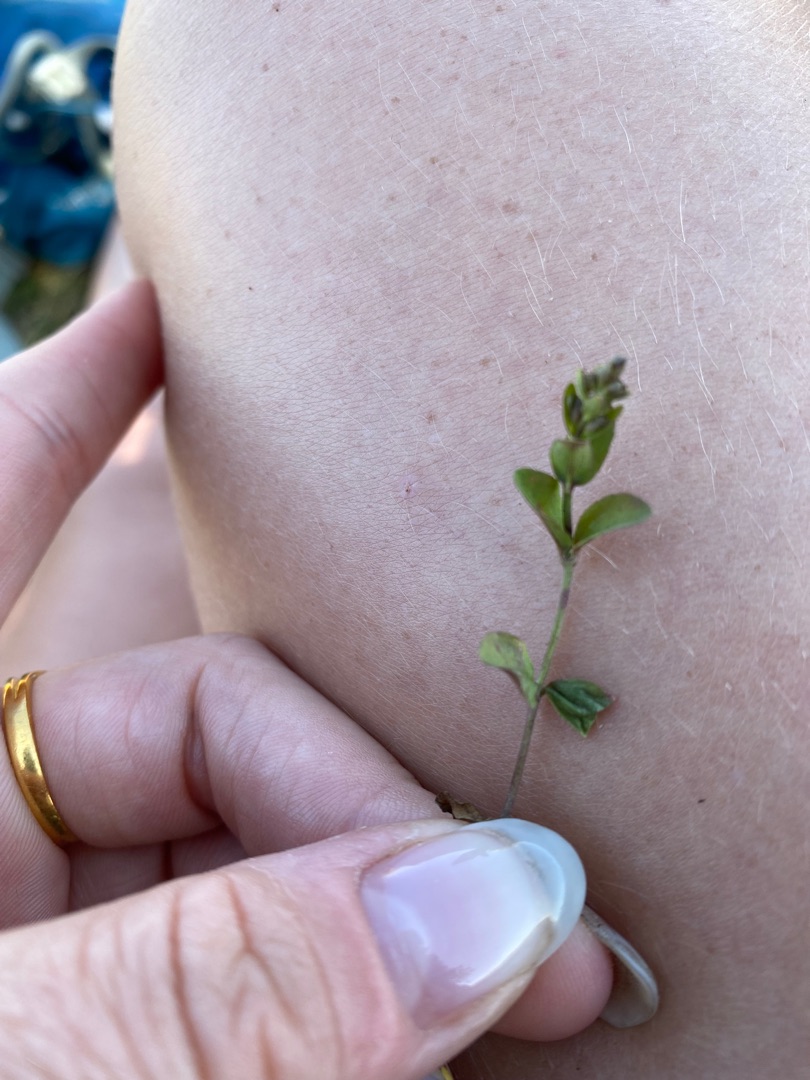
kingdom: Plantae
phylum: Tracheophyta
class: Magnoliopsida
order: Lamiales
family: Plantaginaceae
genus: Veronica
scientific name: Veronica serpyllifolia
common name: Glat ærenpris
